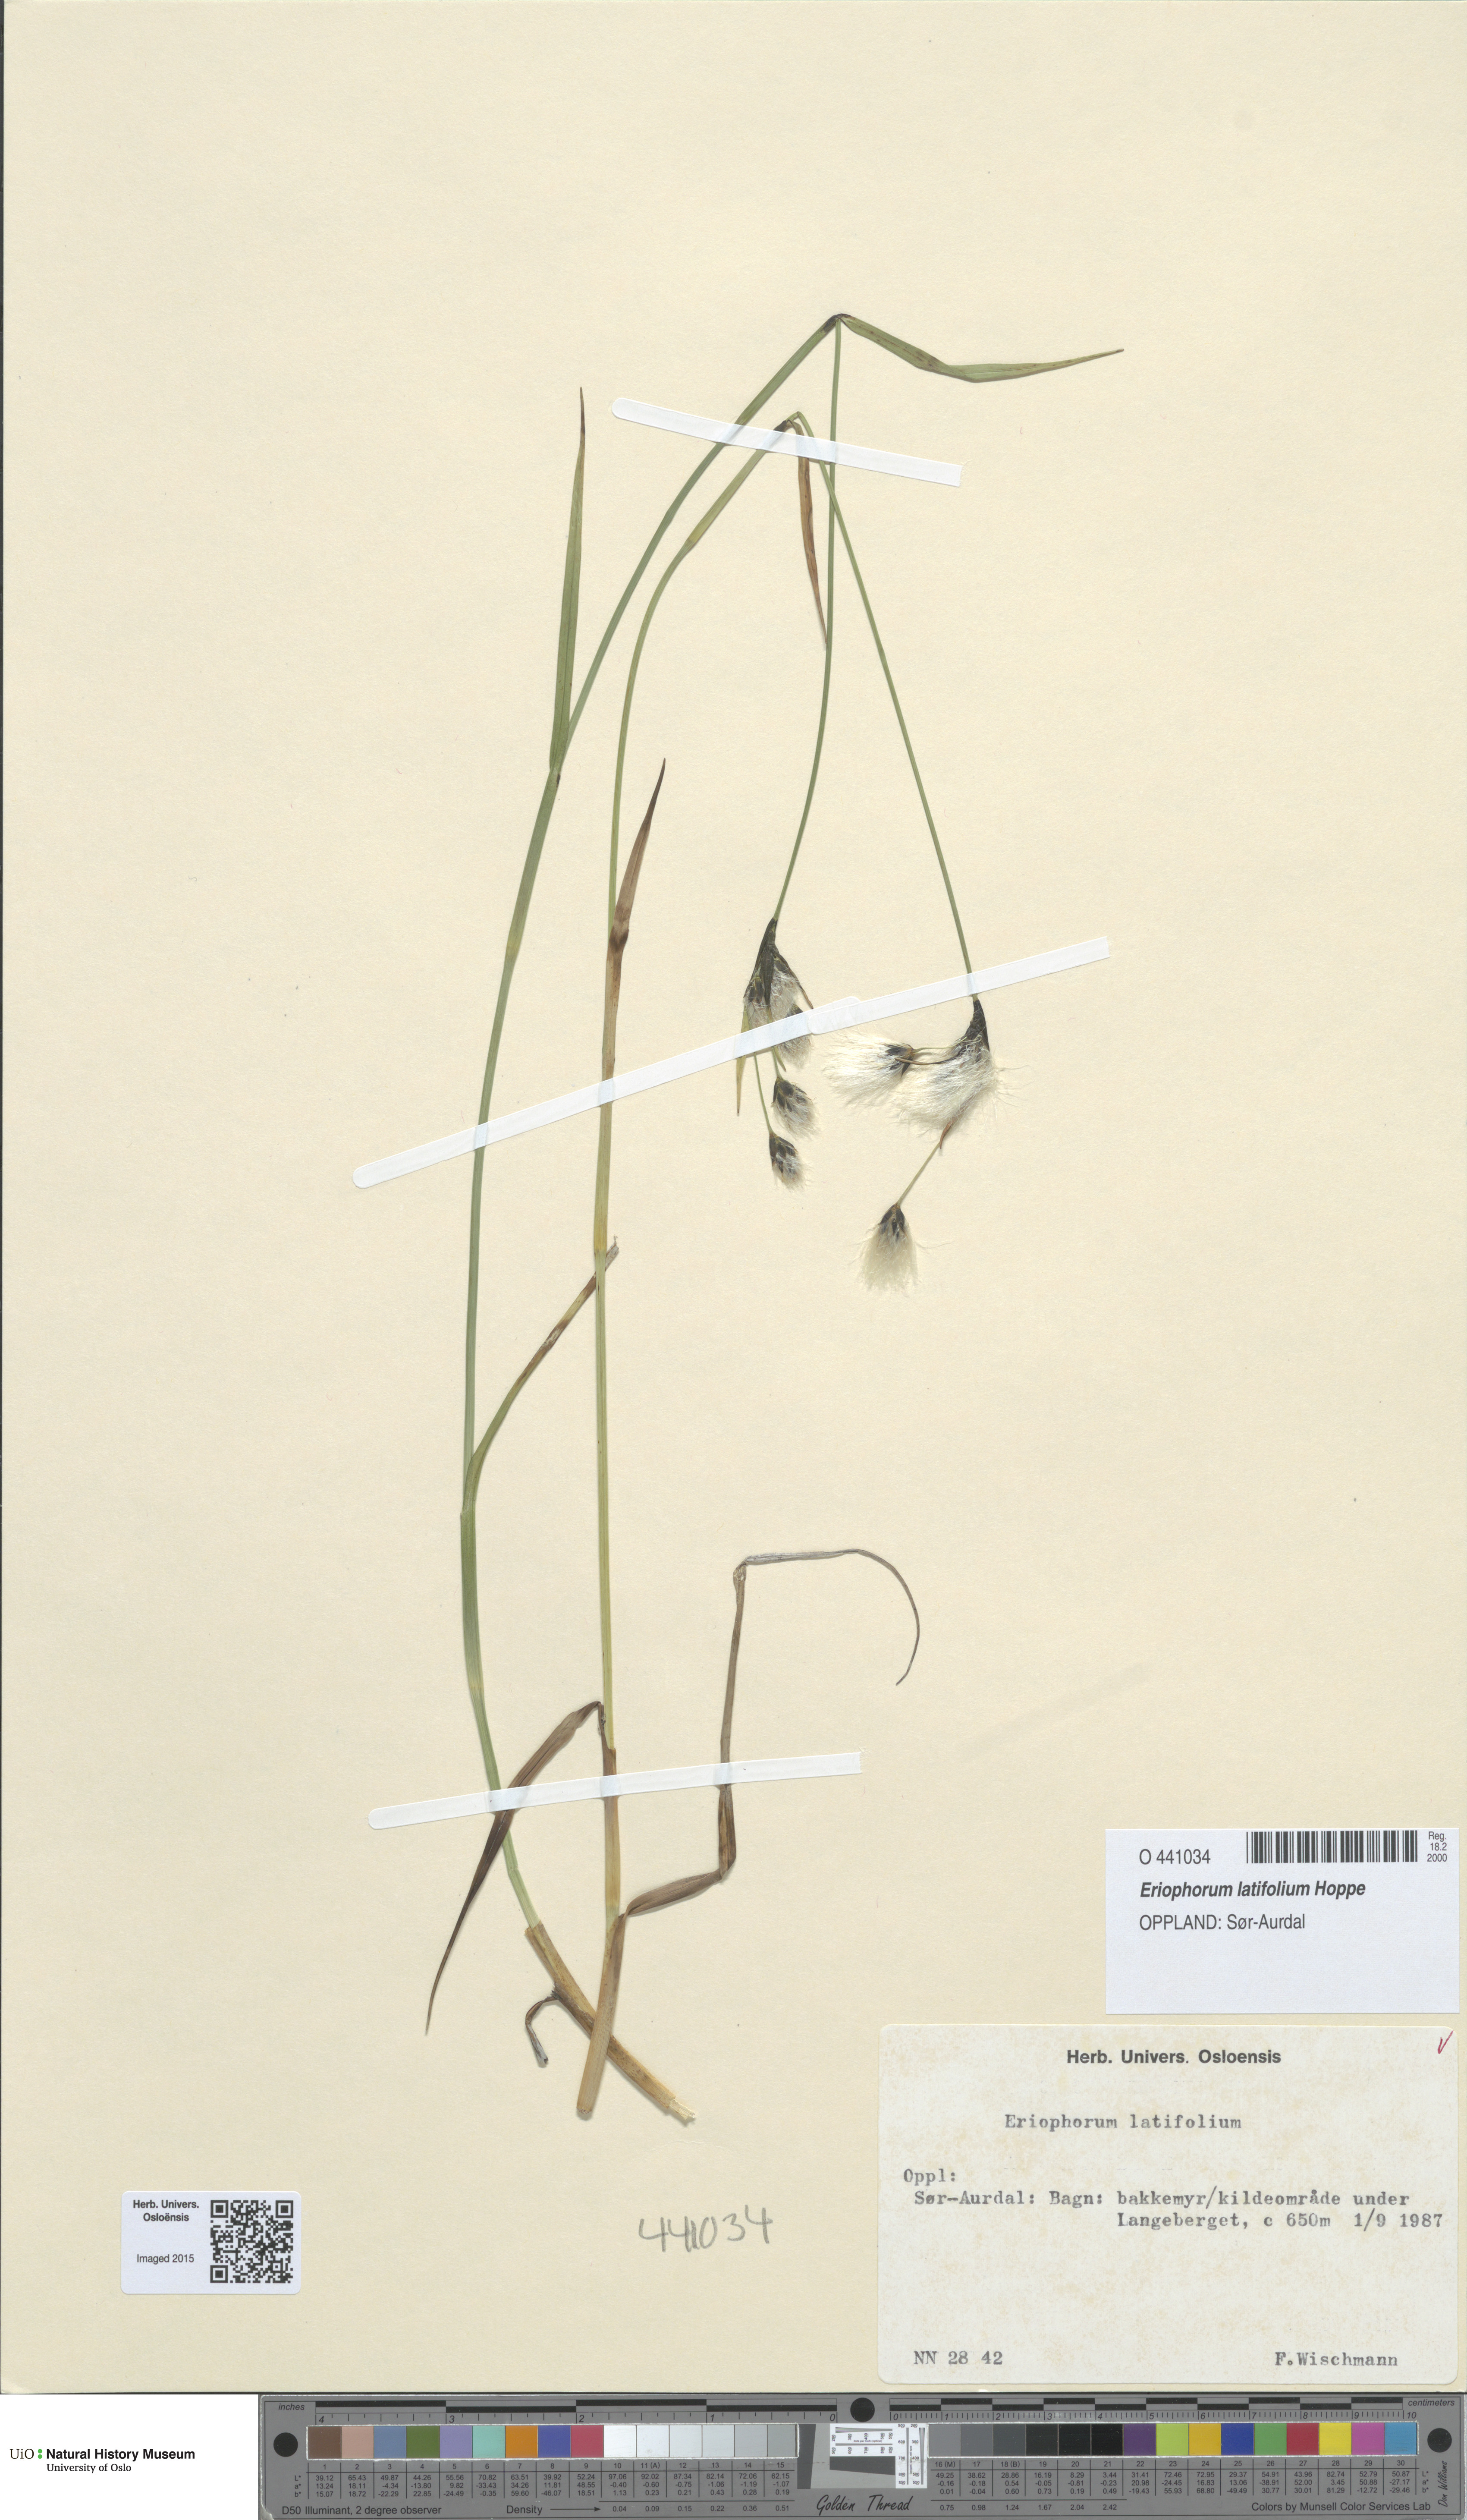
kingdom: Plantae
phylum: Tracheophyta
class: Liliopsida
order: Poales
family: Cyperaceae
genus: Eriophorum
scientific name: Eriophorum latifolium
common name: Broad-leaved cottongrass
